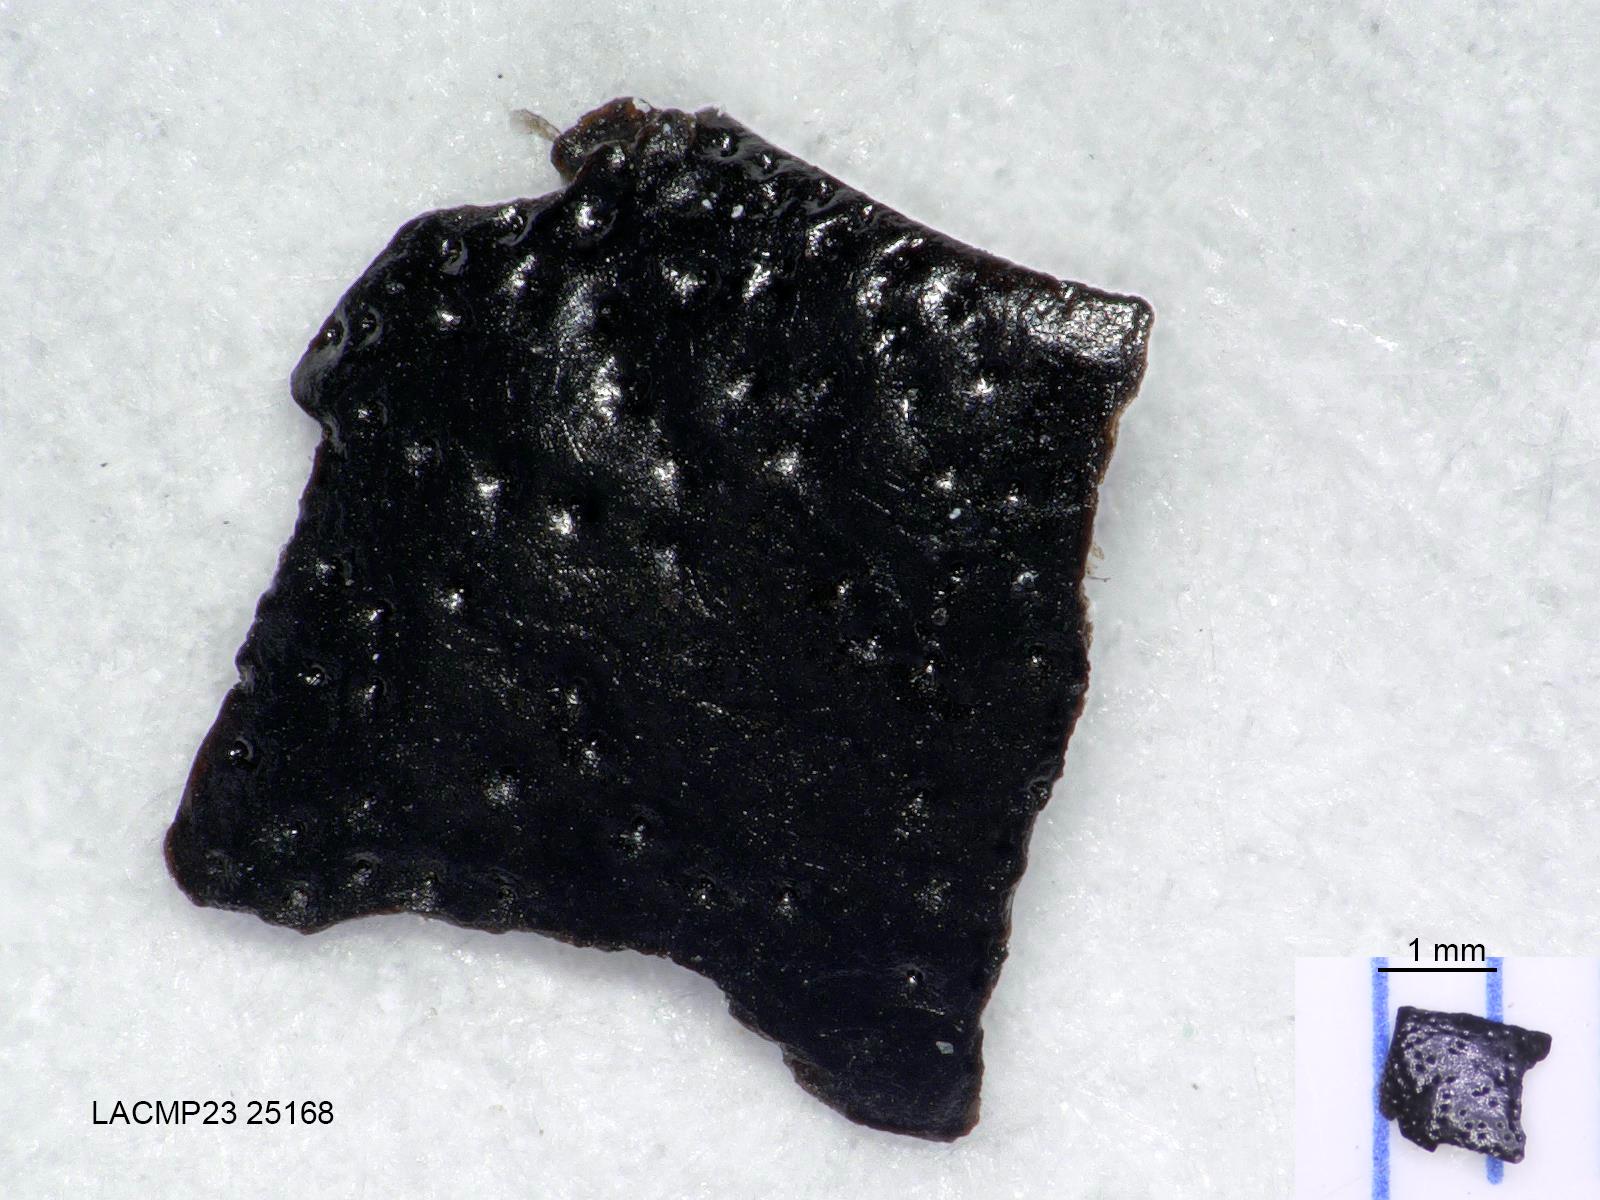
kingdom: Animalia
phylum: Arthropoda
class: Insecta
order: Coleoptera
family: Carabidae
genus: Dicheirus
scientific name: Dicheirus
